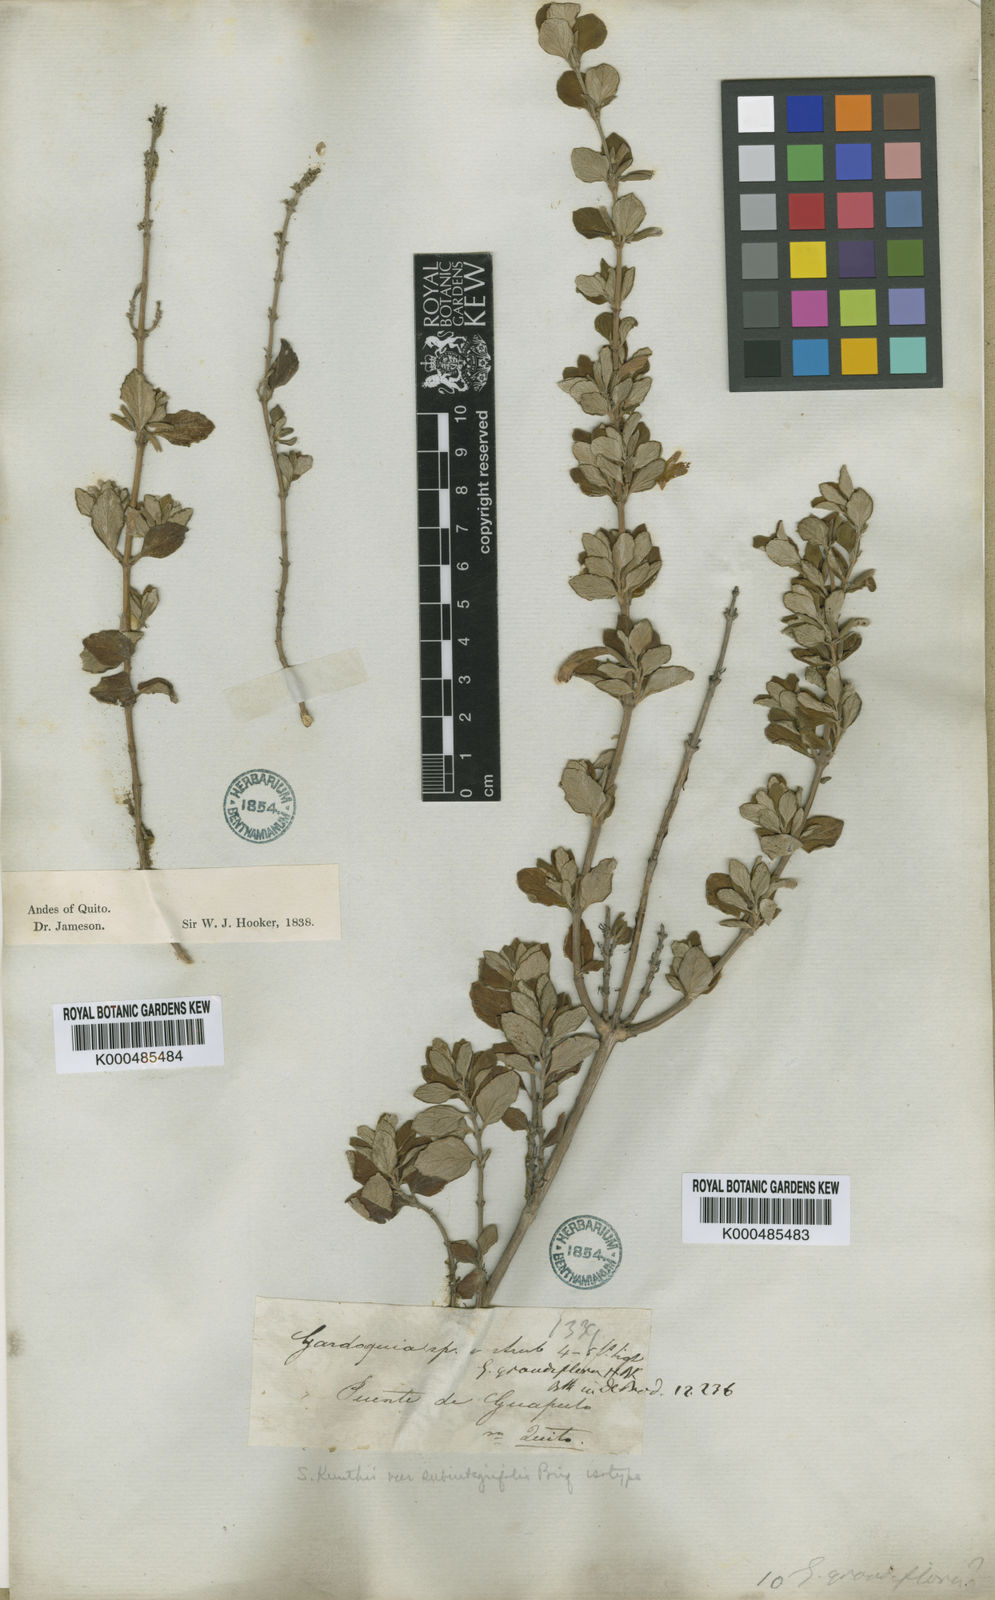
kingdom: Plantae
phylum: Tracheophyta
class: Magnoliopsida
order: Lamiales
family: Lamiaceae
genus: Clinopodium
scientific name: Clinopodium tomentosum
